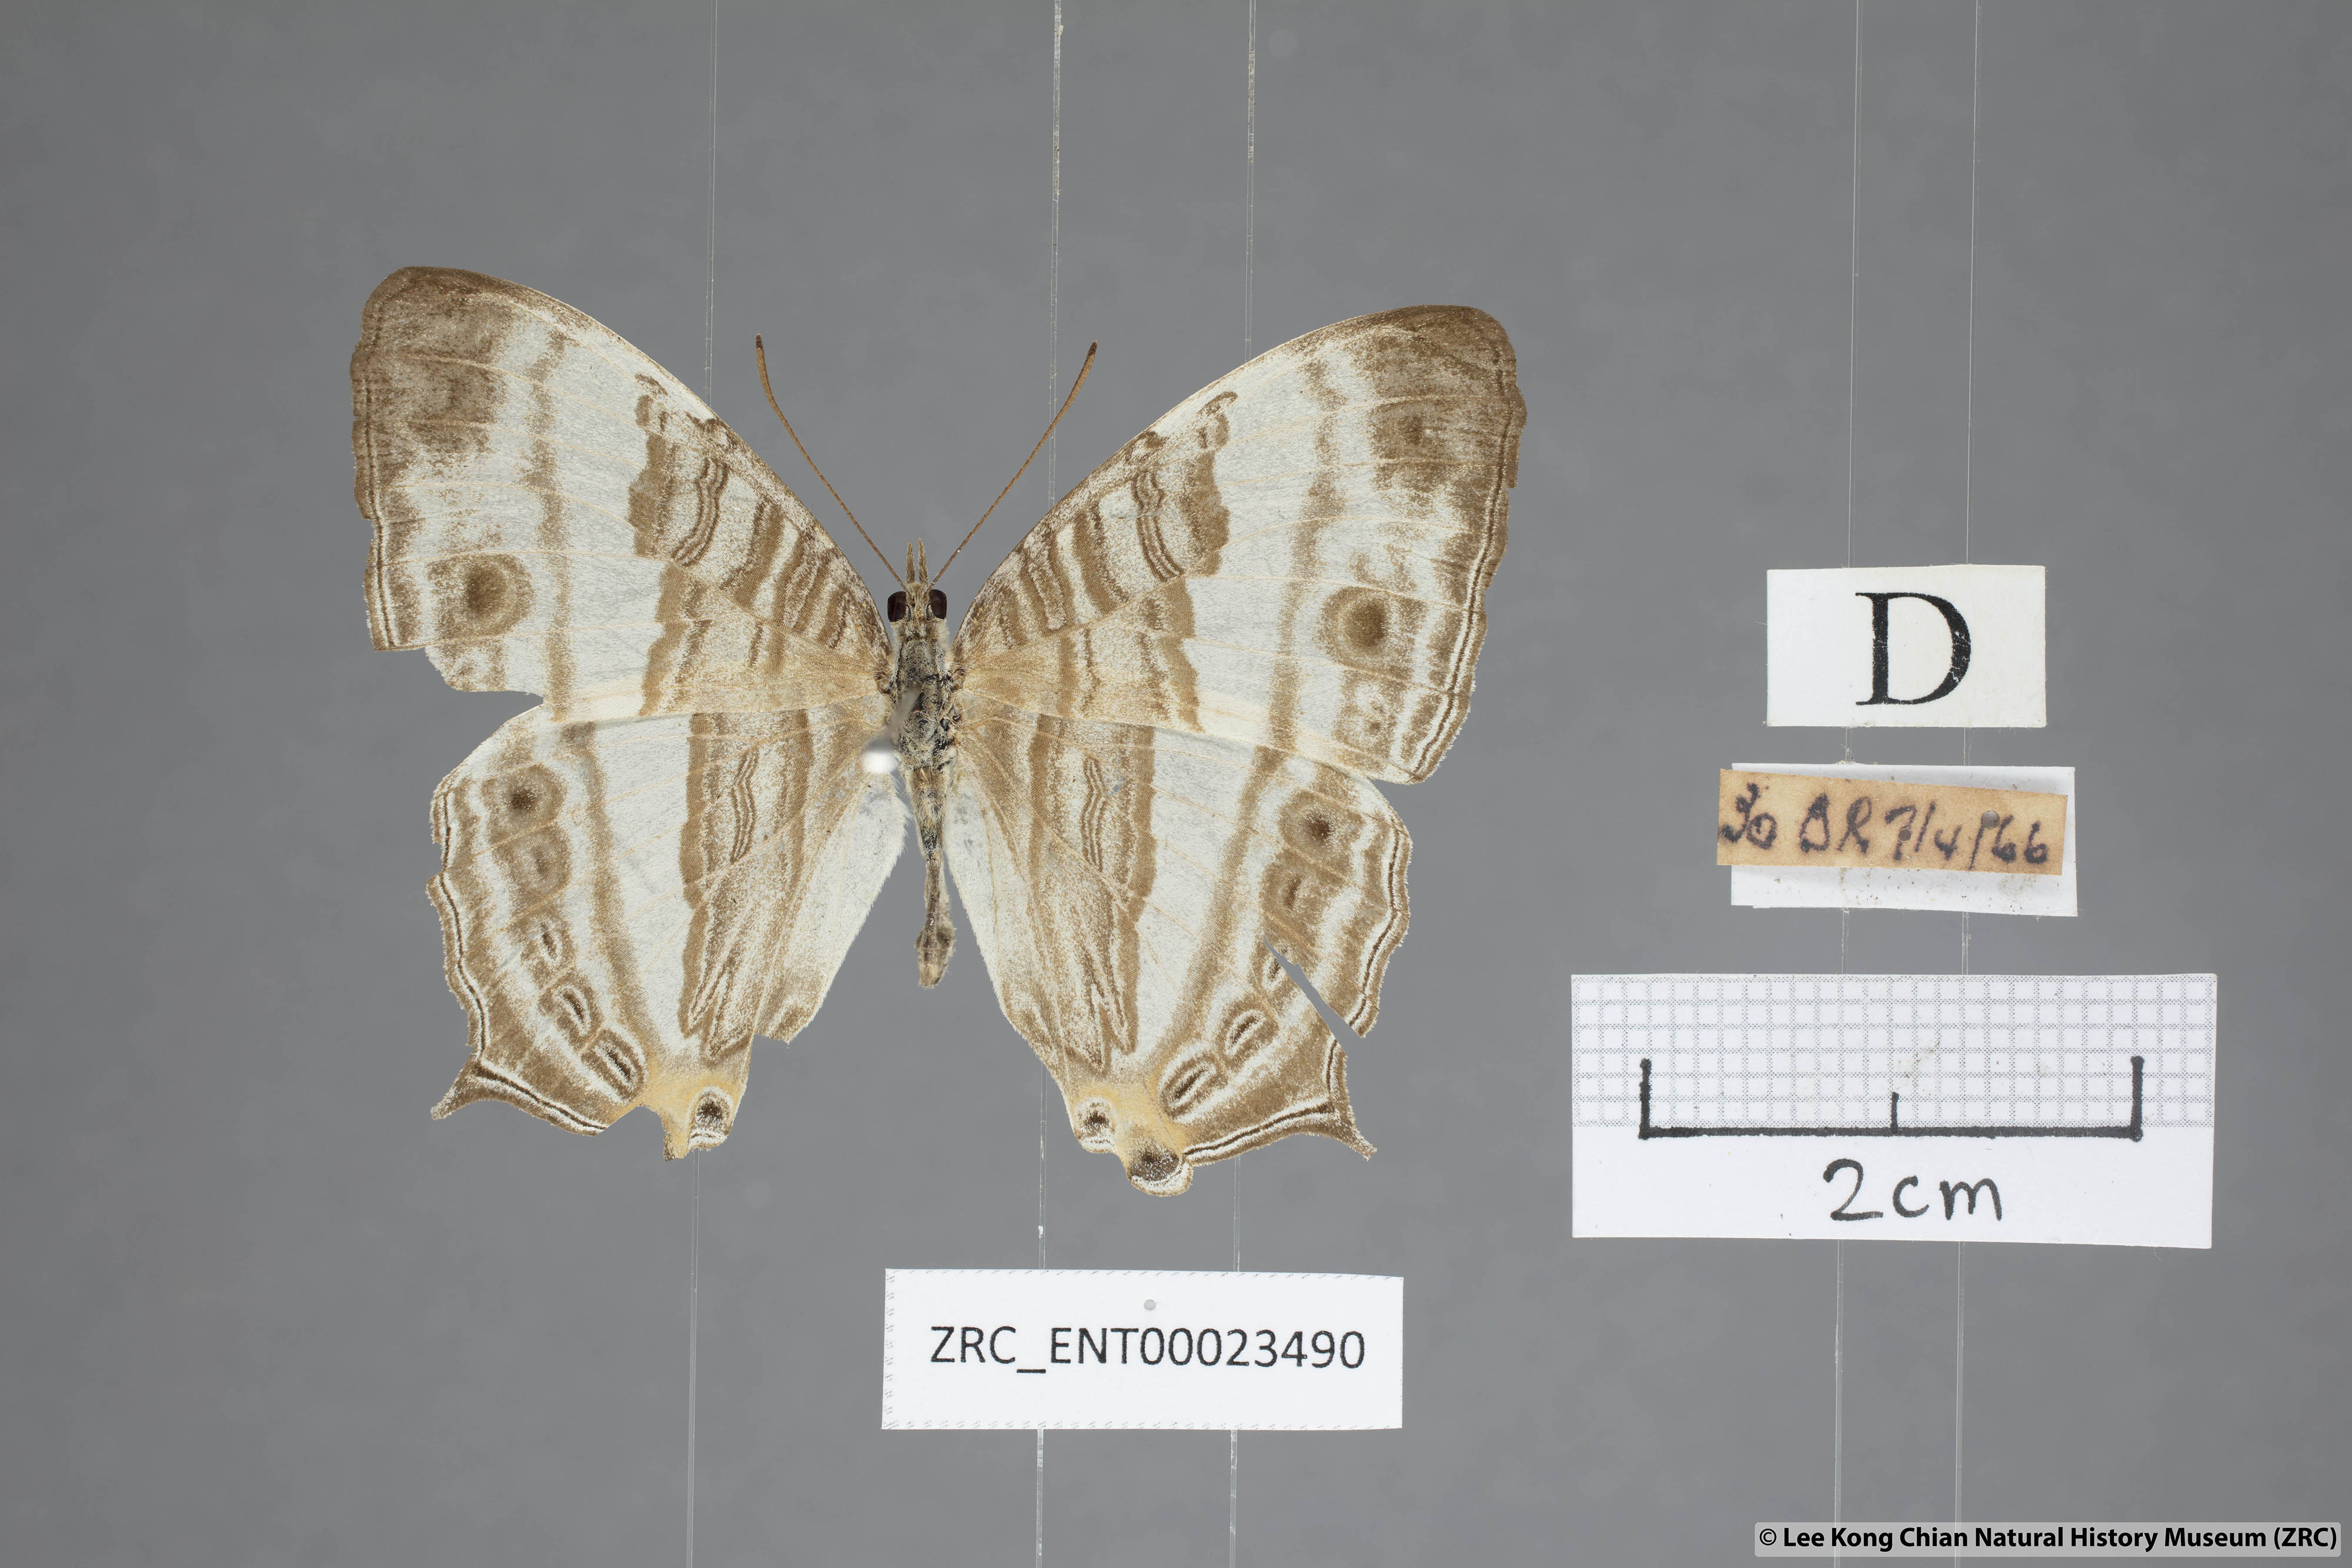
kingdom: Animalia
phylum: Arthropoda
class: Insecta
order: Lepidoptera
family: Nymphalidae
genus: Cyrestis
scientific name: Cyrestis cocles
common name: Marbled map
